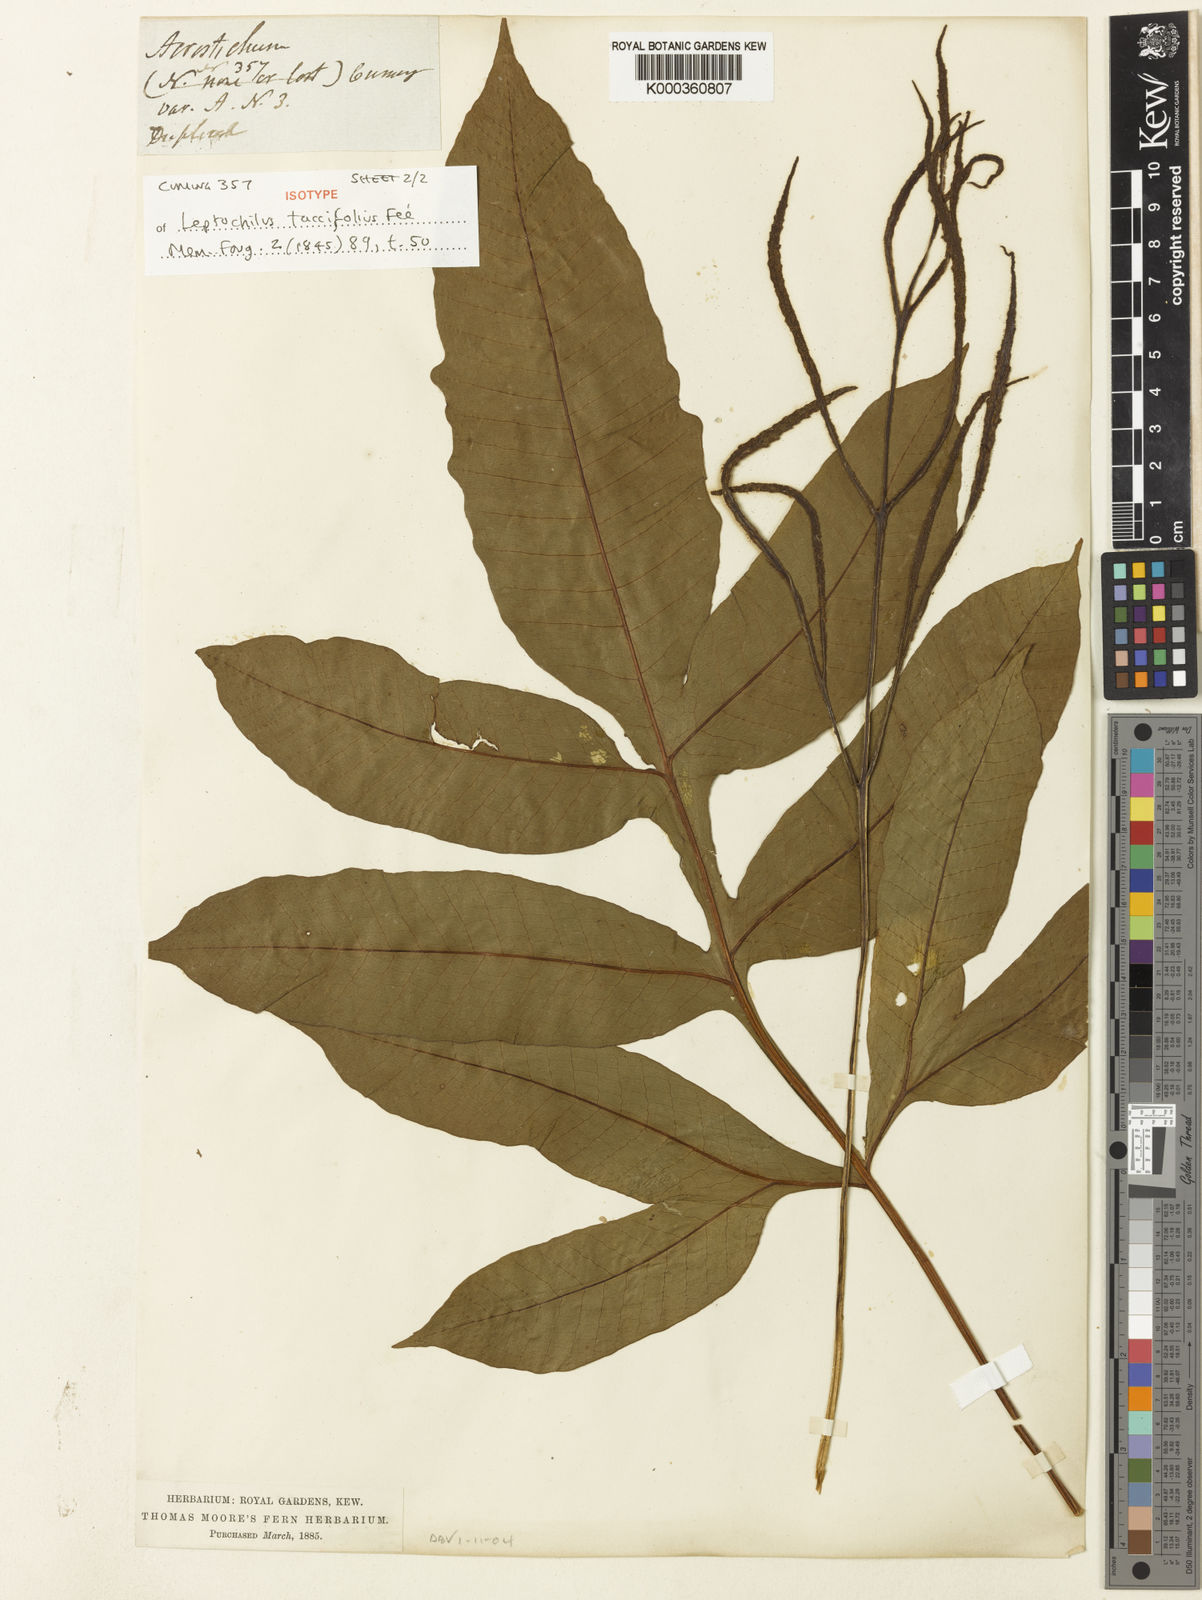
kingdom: Plantae
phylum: Tracheophyta
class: Polypodiopsida
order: Polypodiales
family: Tectariaceae
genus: Tectaria
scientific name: Tectaria
